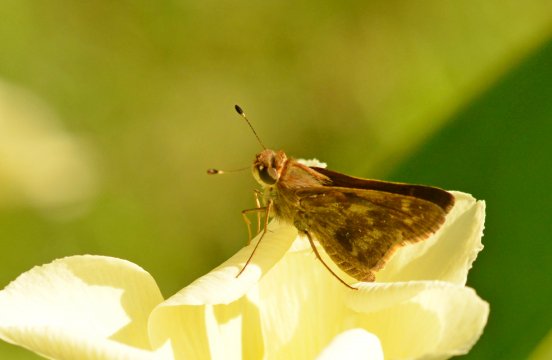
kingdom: Animalia
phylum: Arthropoda
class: Insecta
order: Lepidoptera
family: Hesperiidae
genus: Pompeius
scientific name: Pompeius pompeius
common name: Pompeius Skipper
